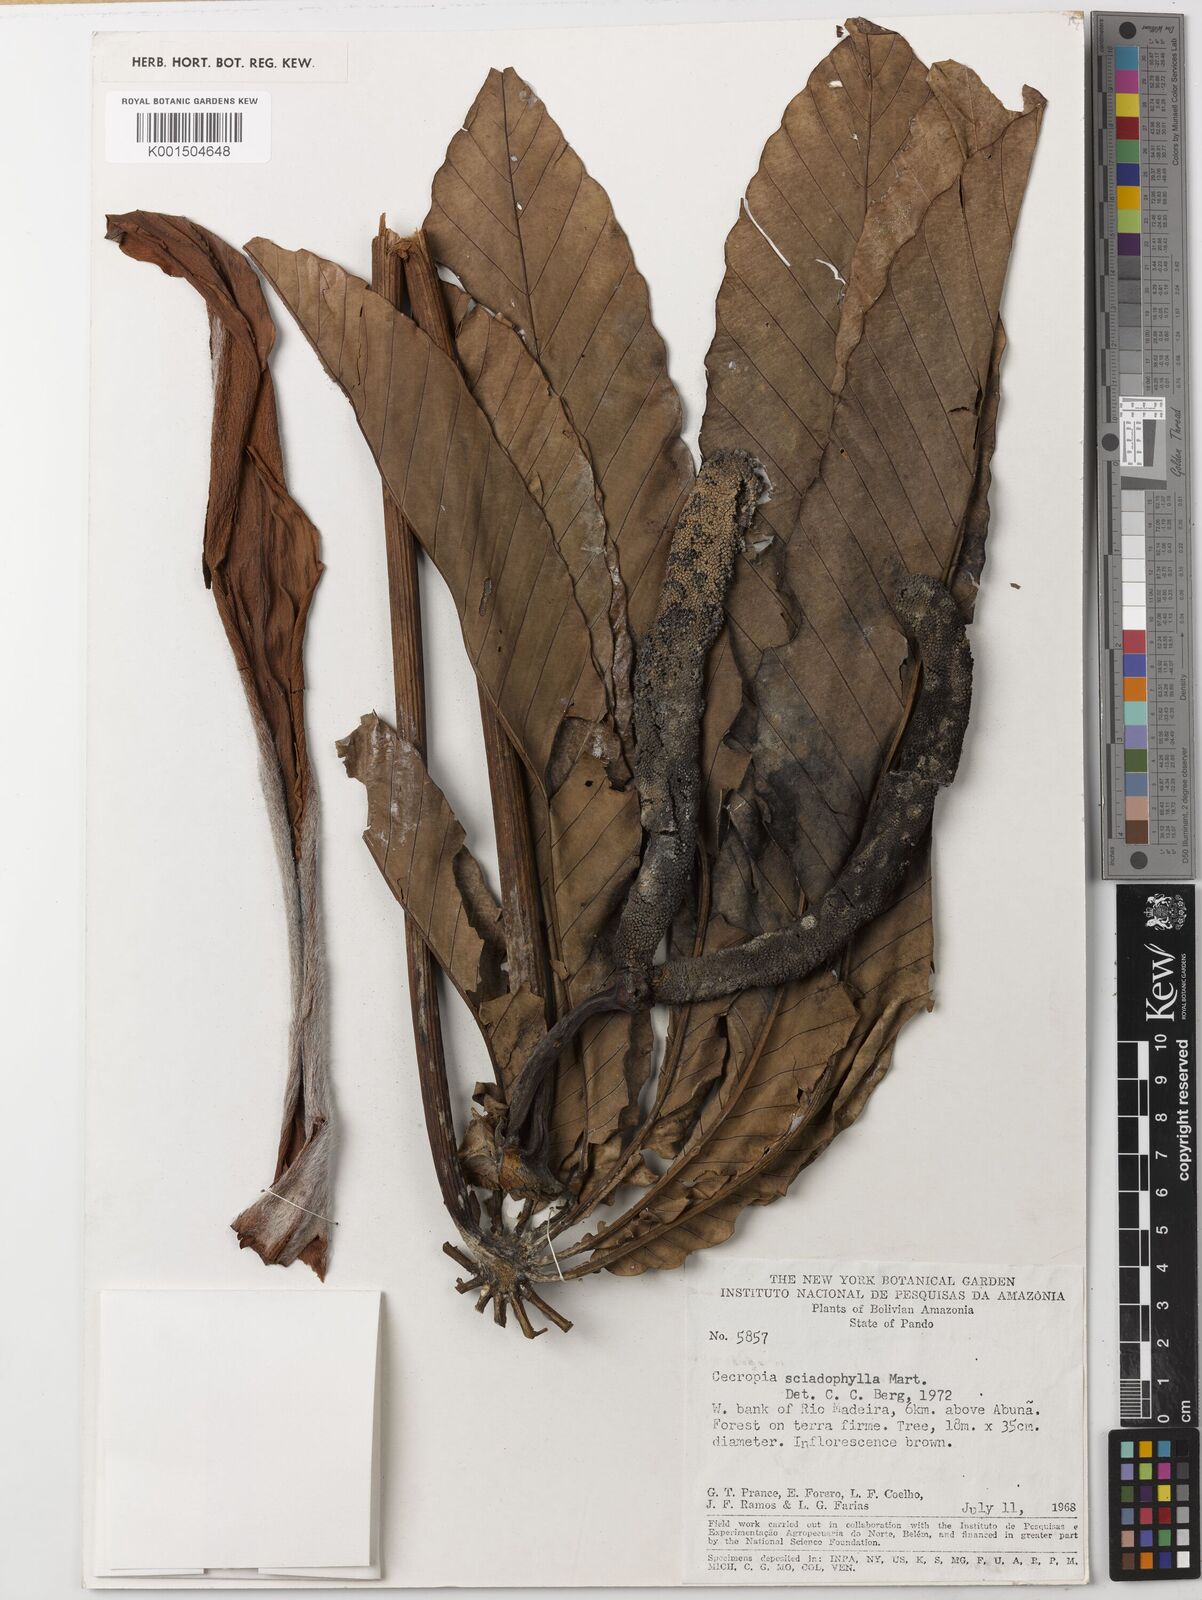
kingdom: Plantae
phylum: Tracheophyta
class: Magnoliopsida
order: Rosales
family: Urticaceae
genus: Cecropia
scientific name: Cecropia sciadophylla
